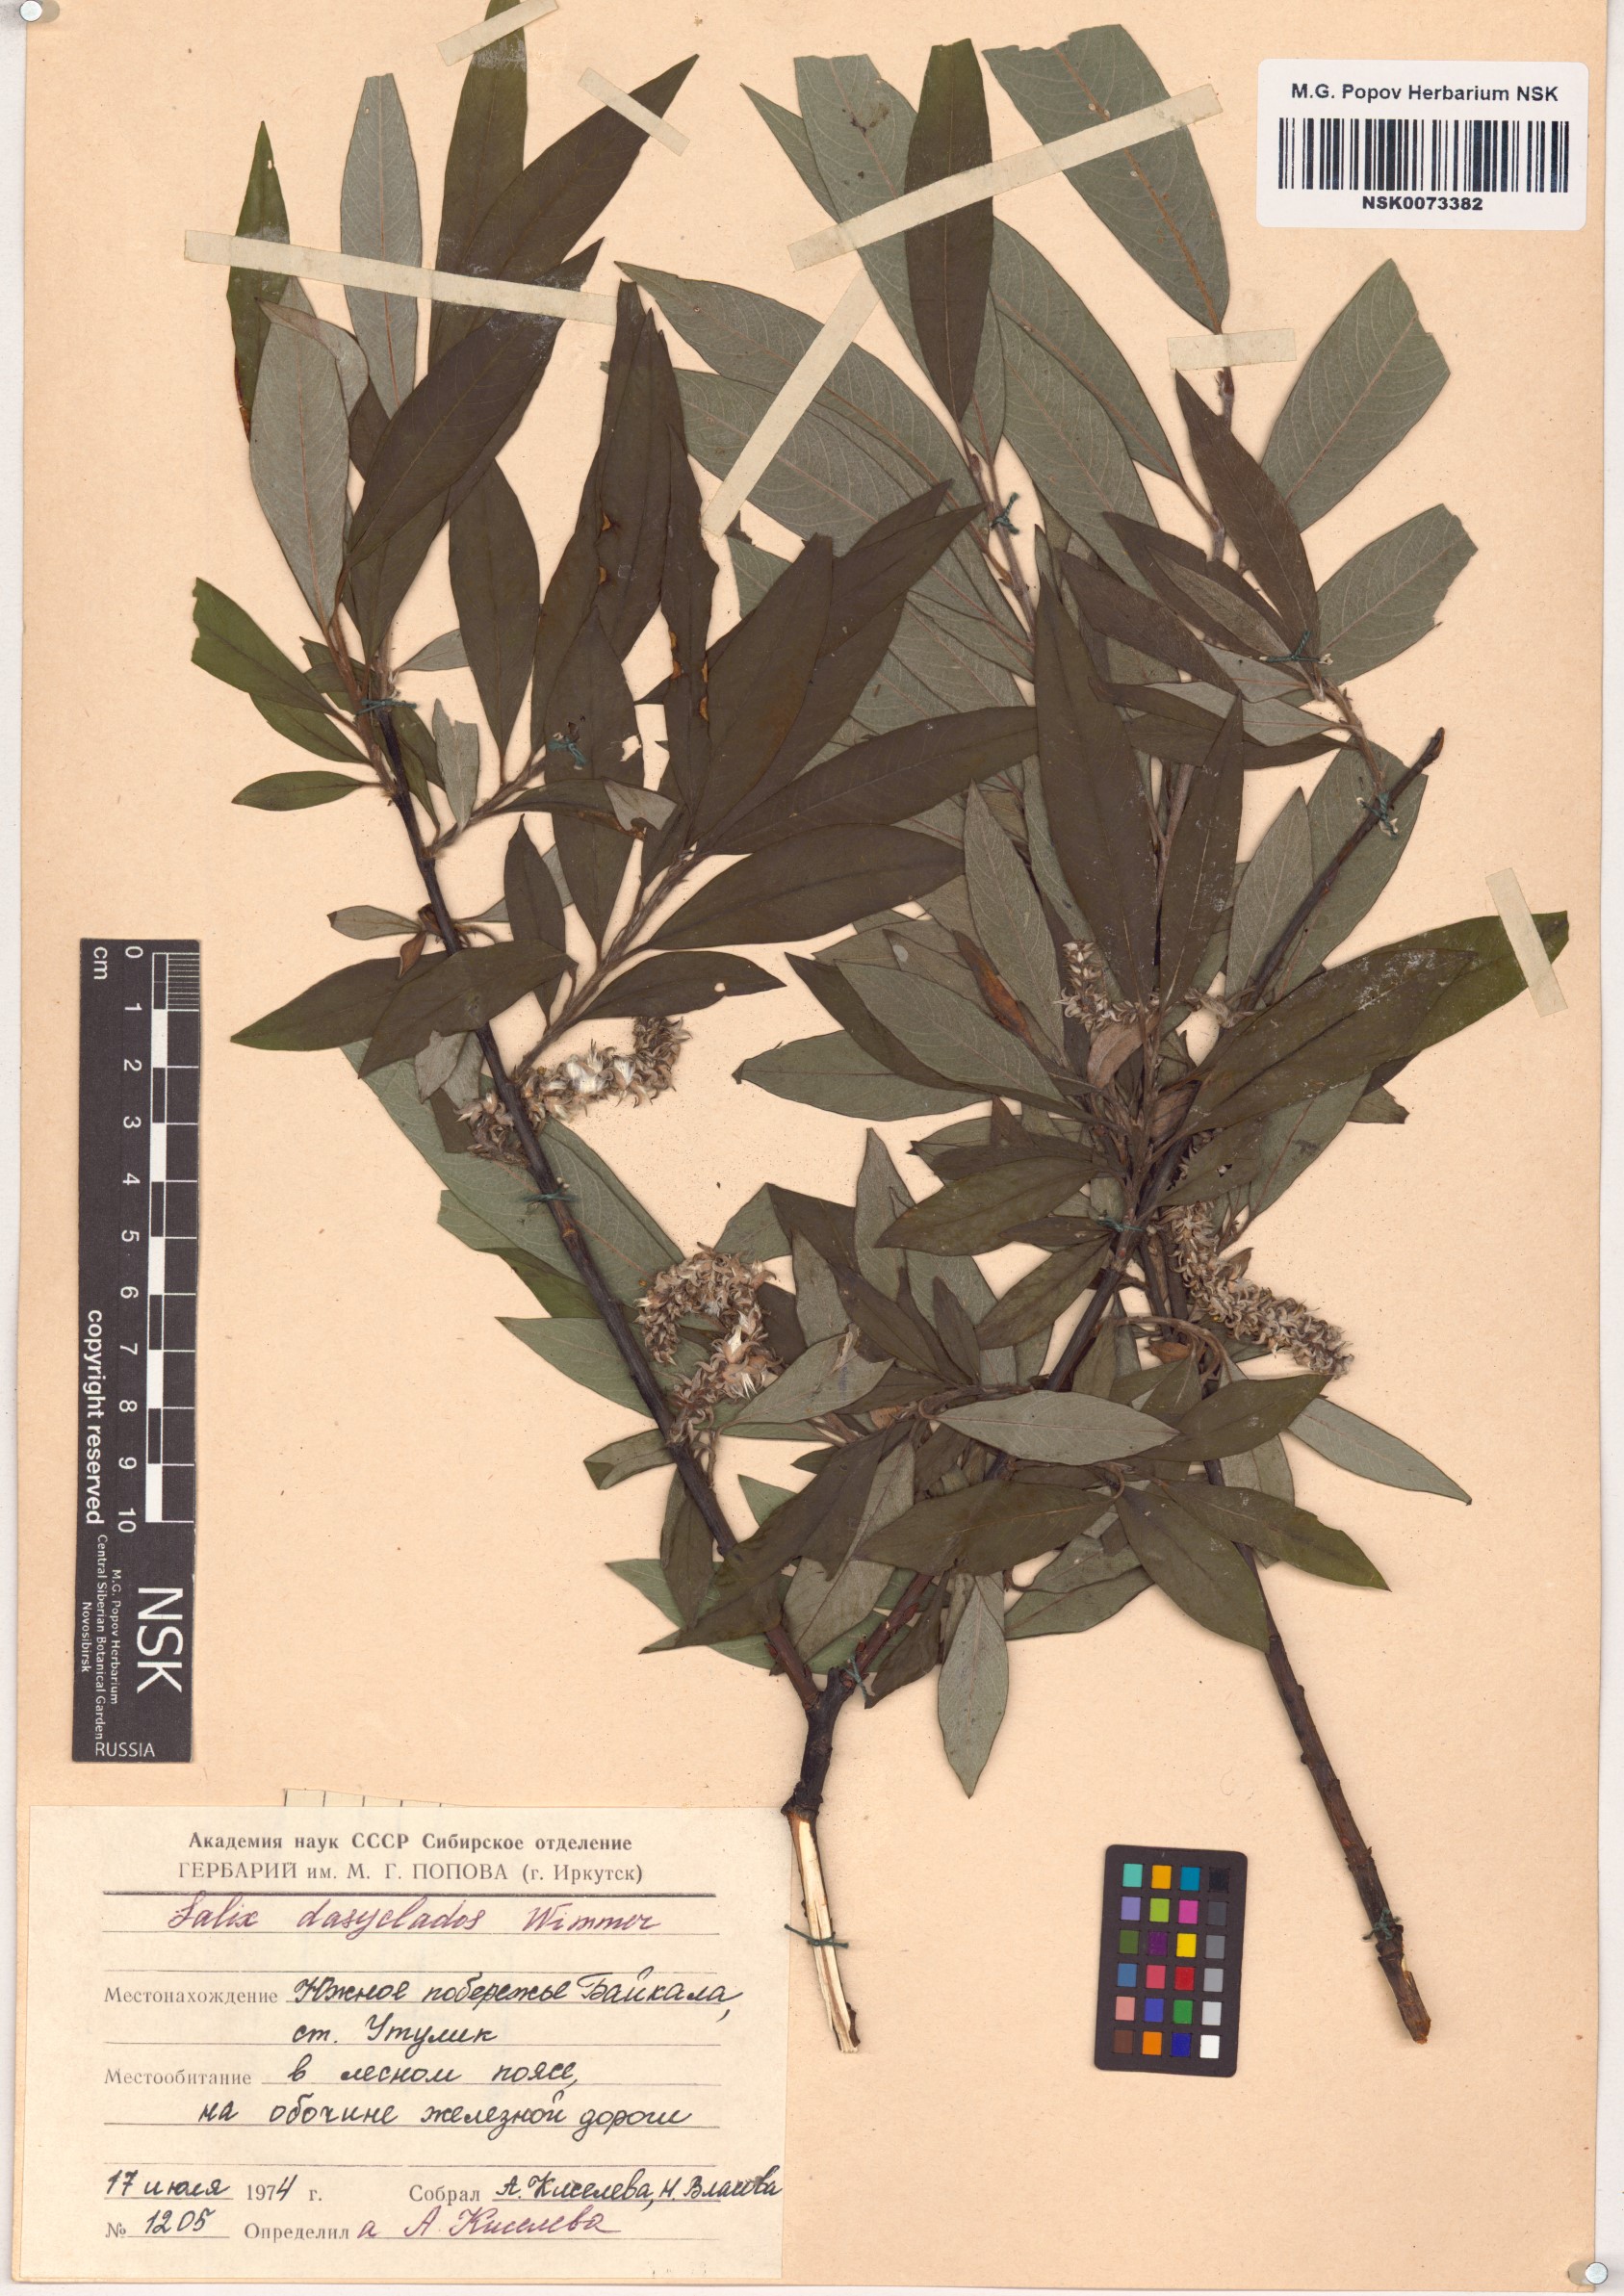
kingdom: Plantae
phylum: Tracheophyta
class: Magnoliopsida
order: Malpighiales
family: Salicaceae
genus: Salix
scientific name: Salix gmelinii
